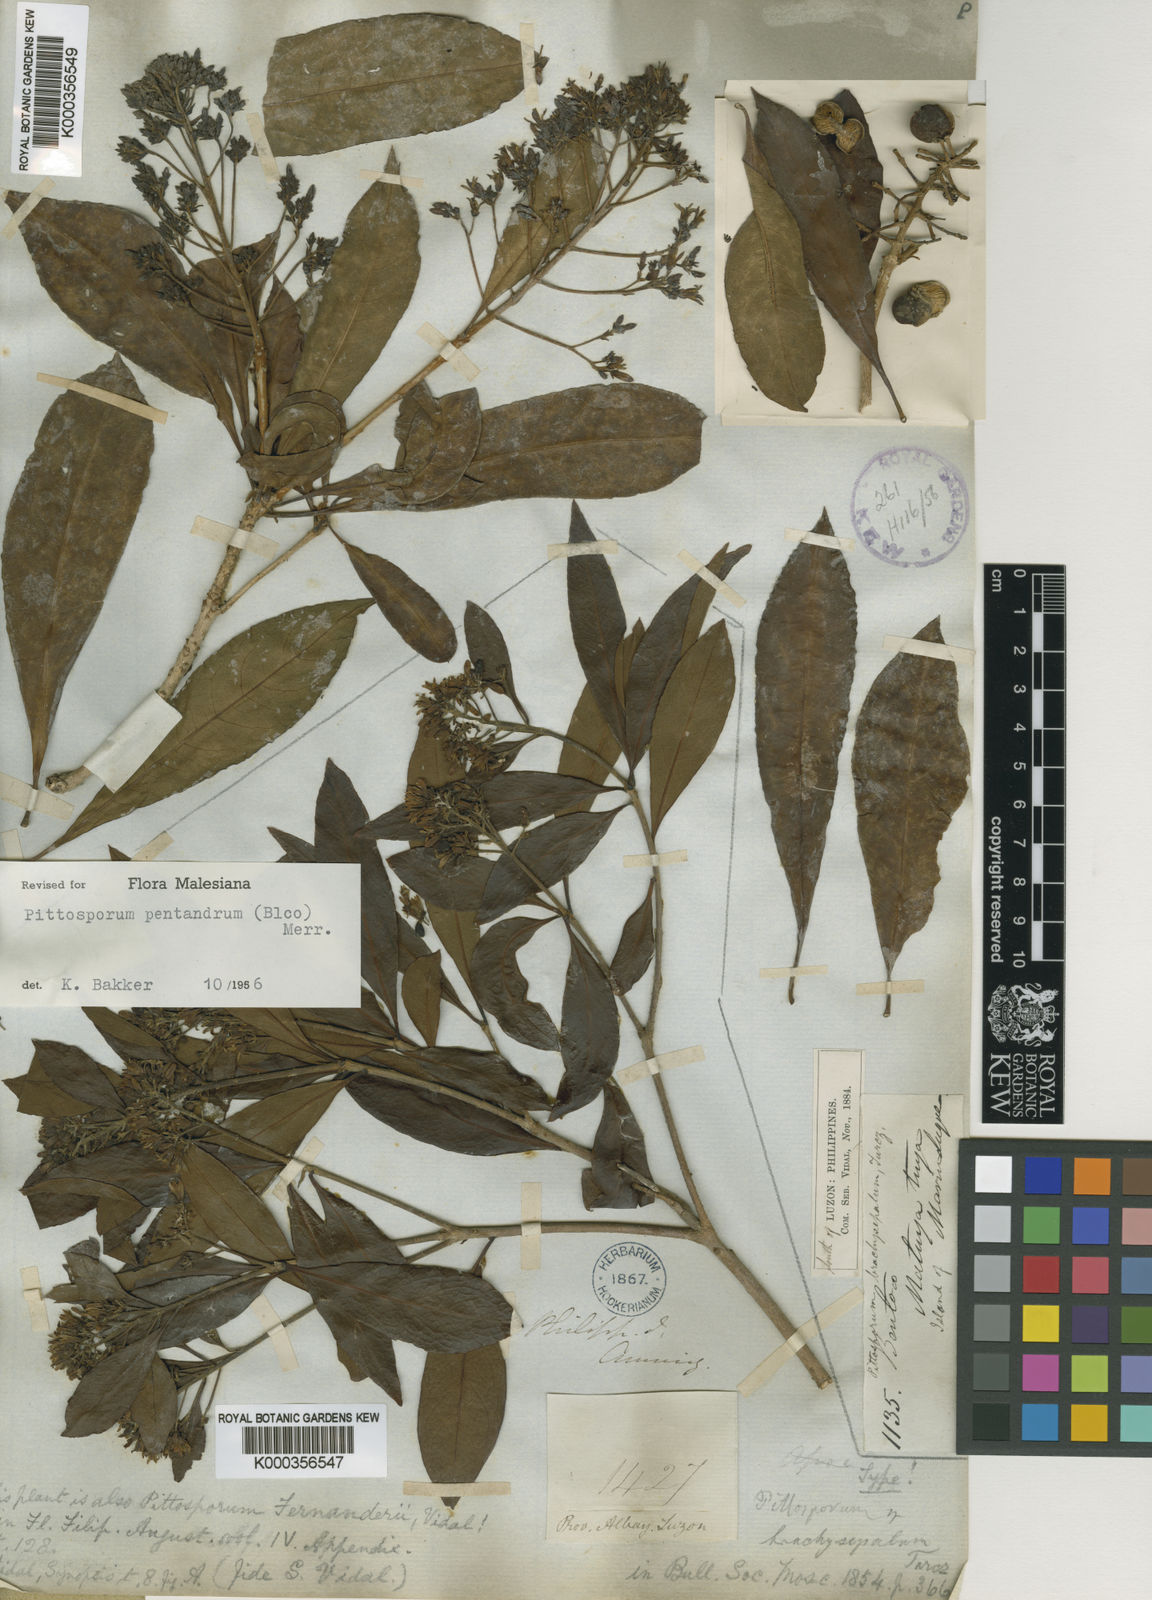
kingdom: Plantae
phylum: Tracheophyta
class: Magnoliopsida
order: Apiales
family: Pittosporaceae
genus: Pittosporum
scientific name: Pittosporum pentandrum
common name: Taiwanese cheesewood
